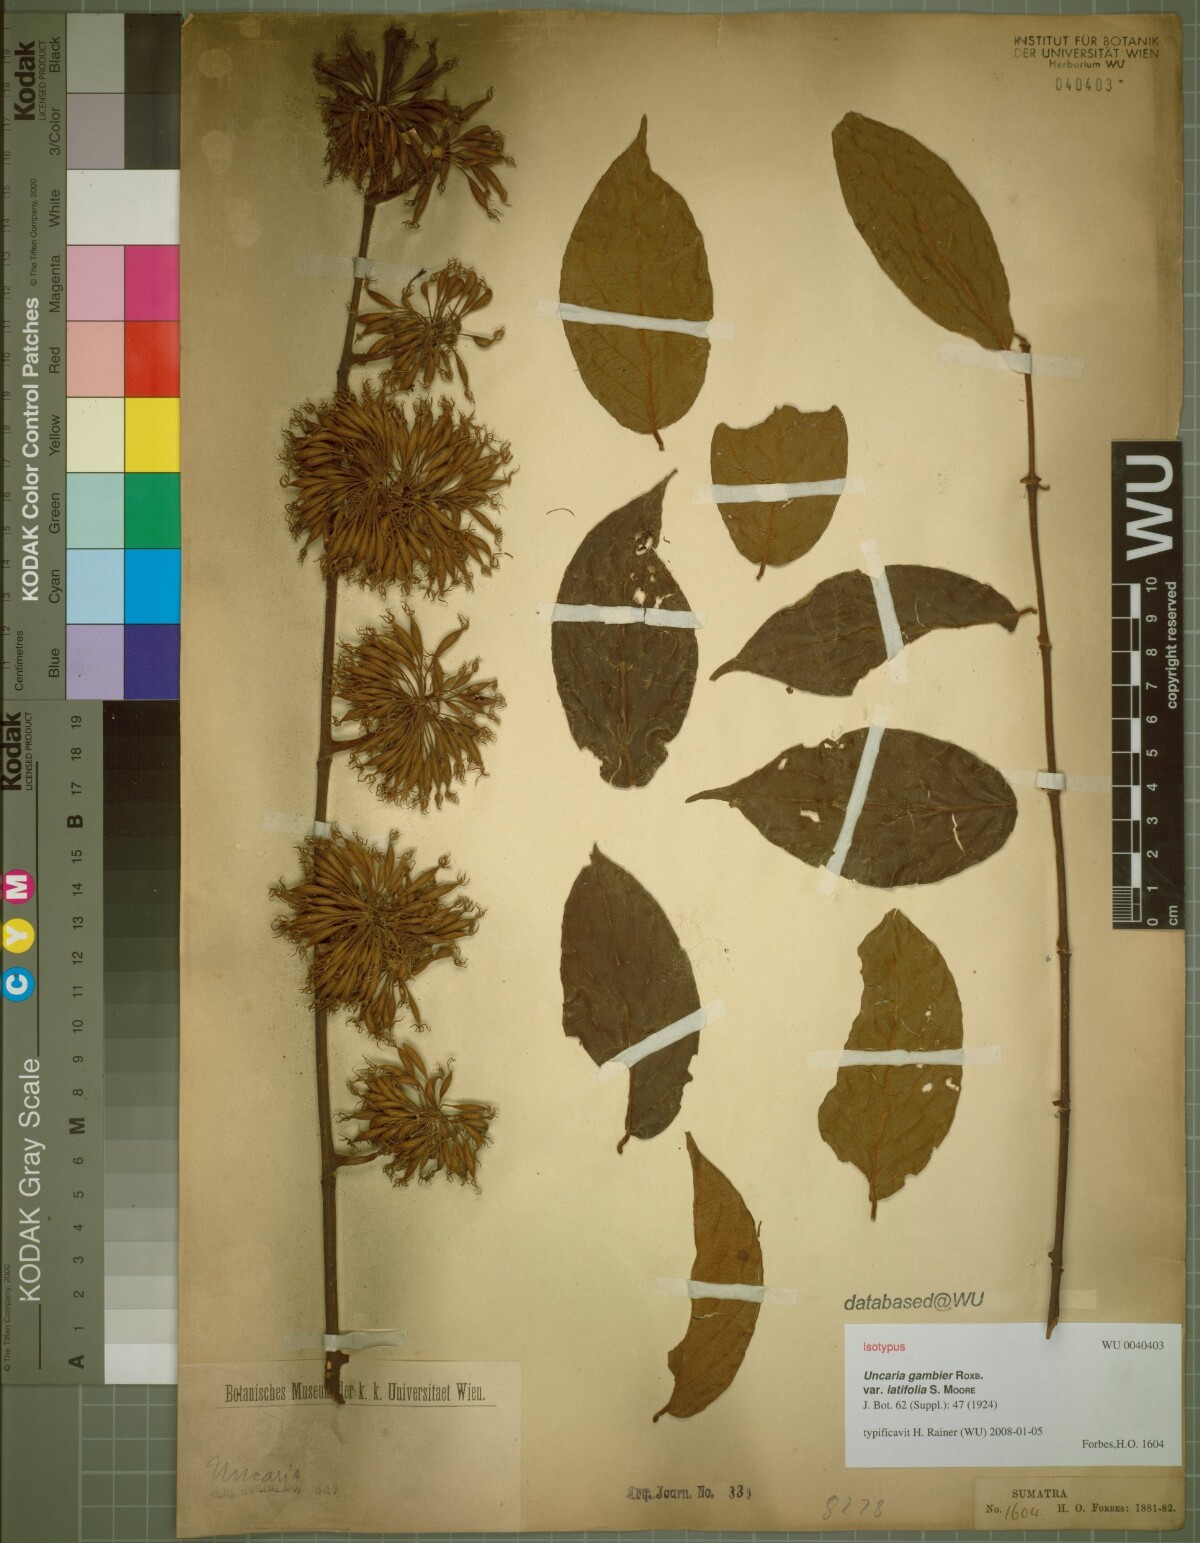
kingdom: Plantae
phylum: Tracheophyta
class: Magnoliopsida
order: Gentianales
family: Rubiaceae
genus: Uncaria
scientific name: Uncaria lanosa
